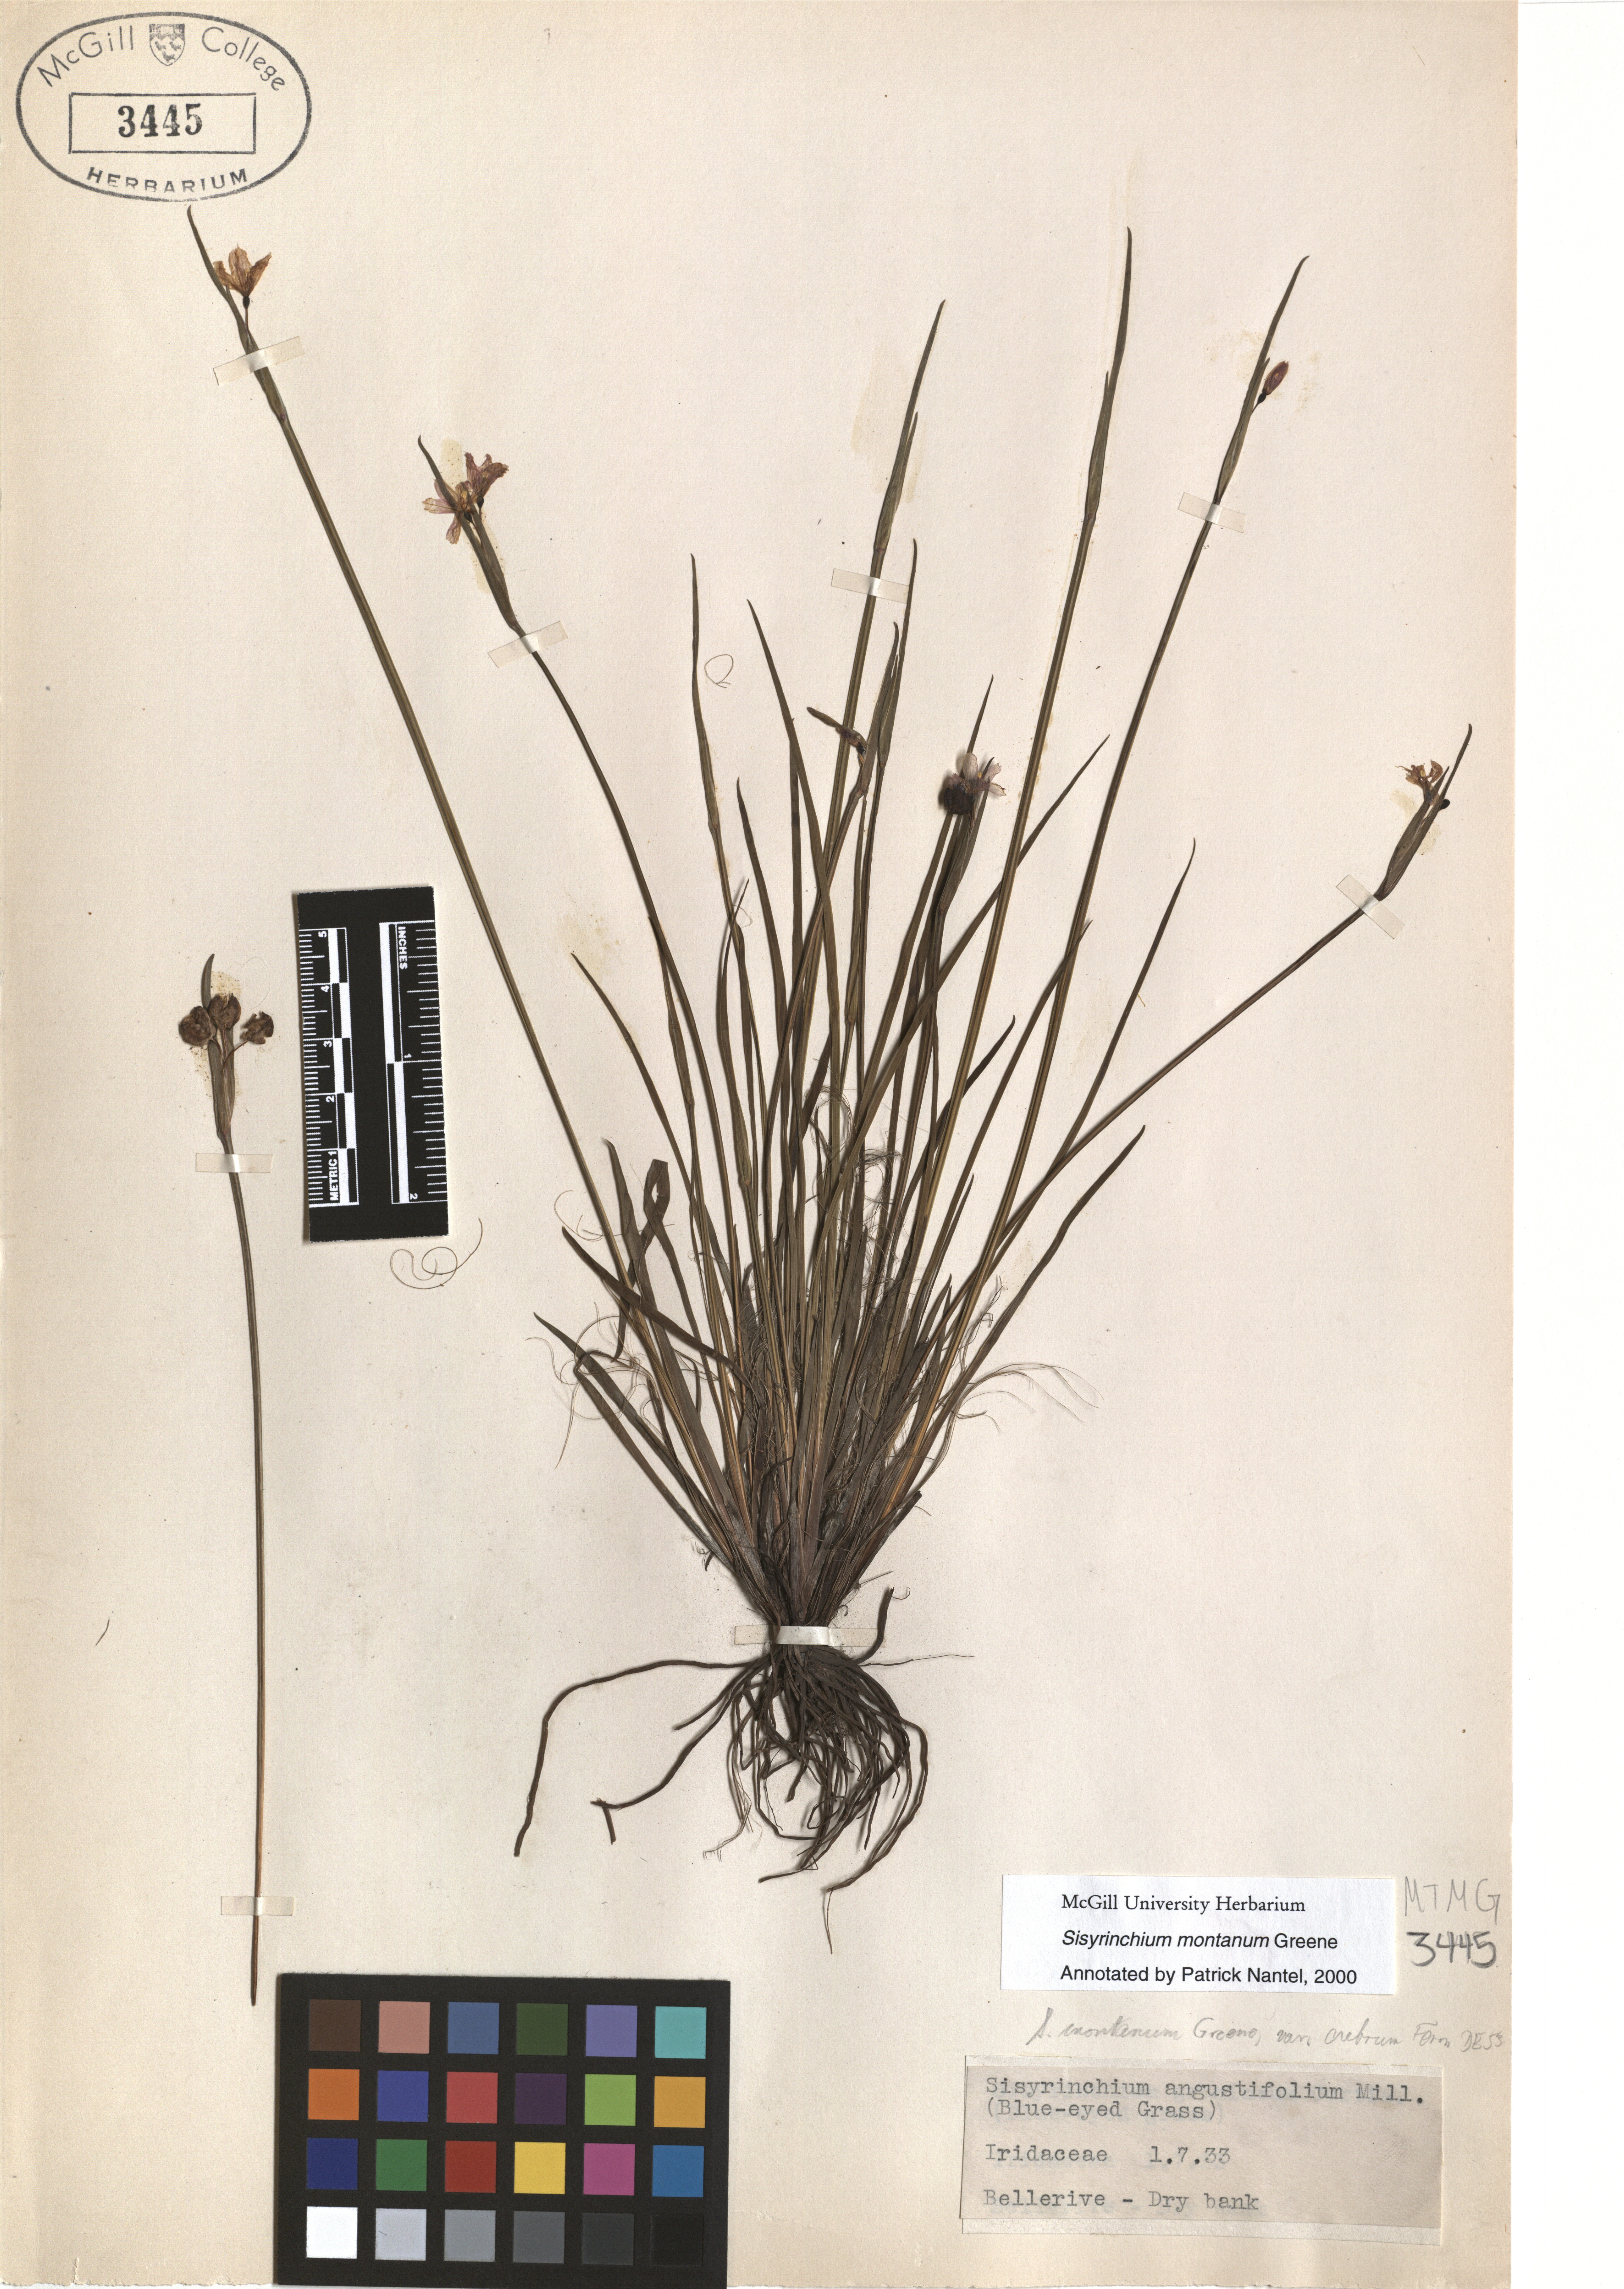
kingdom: Plantae
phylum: Tracheophyta
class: Liliopsida
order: Asparagales
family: Iridaceae
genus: Sisyrinchium
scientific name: Sisyrinchium montanum
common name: American blue-eyed-grass
